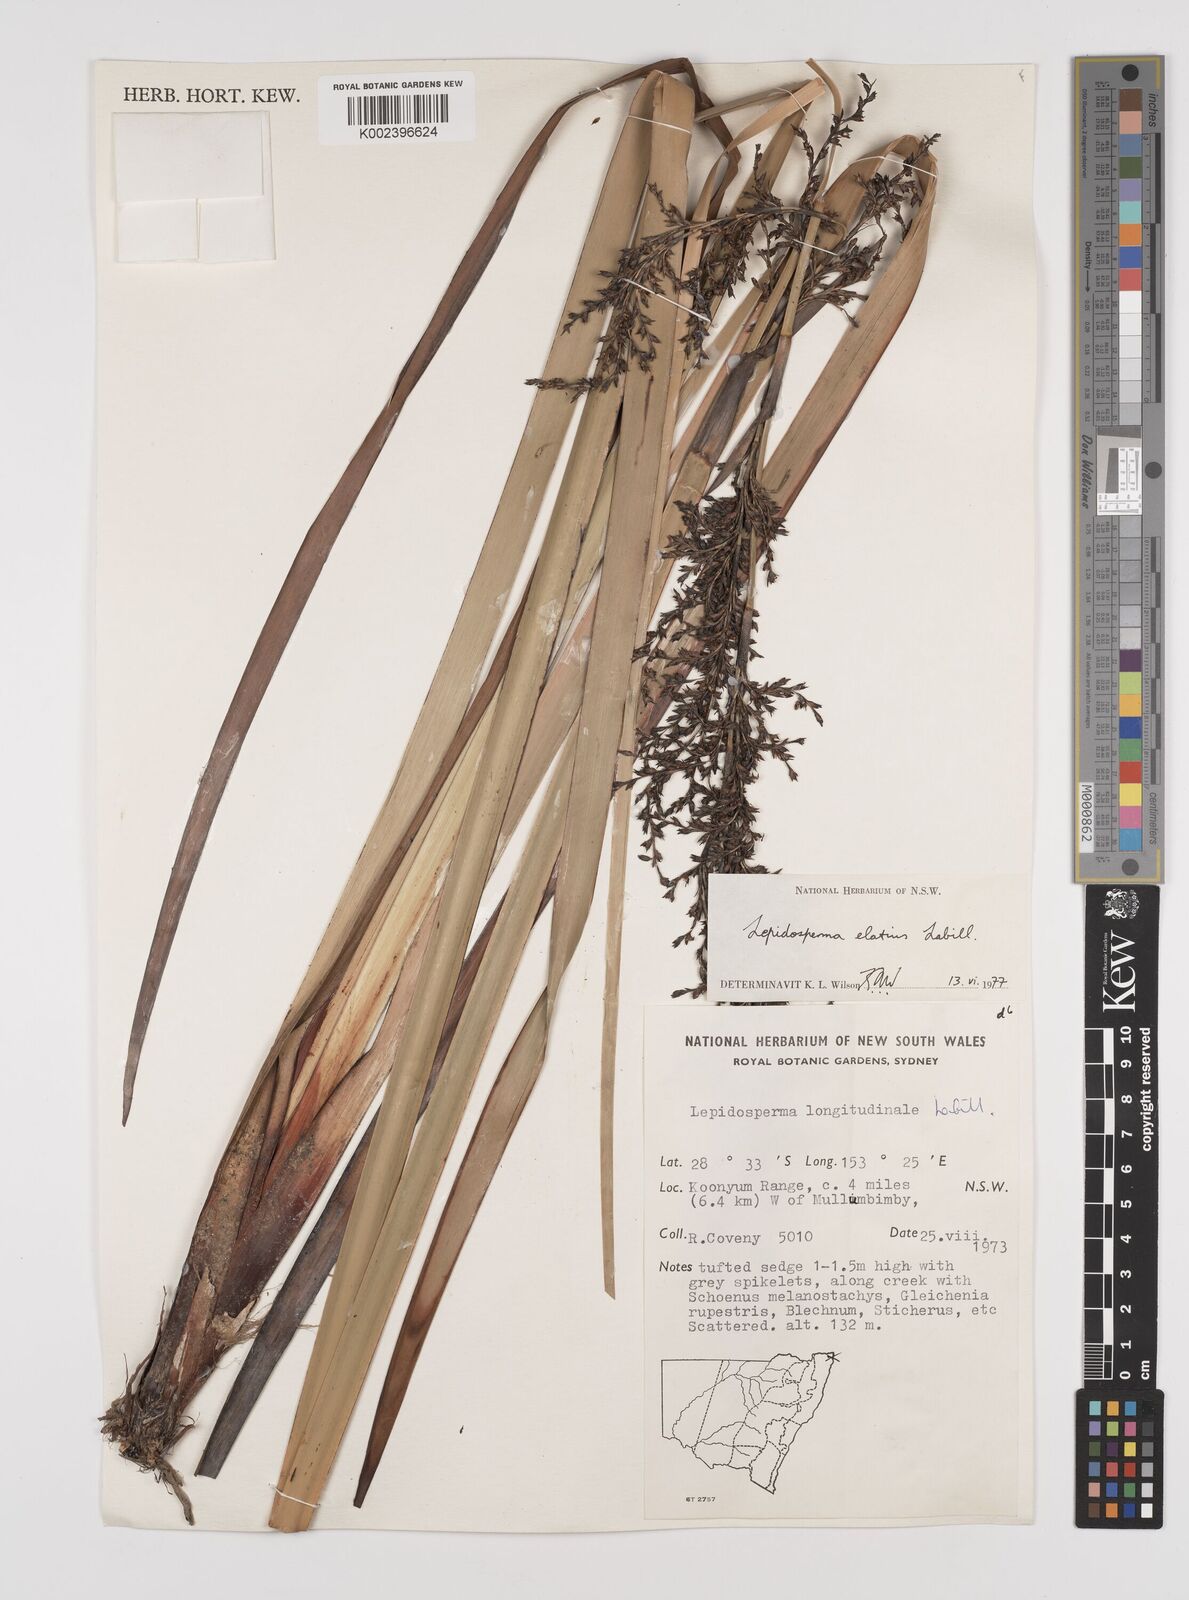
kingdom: Plantae
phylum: Tracheophyta
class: Liliopsida
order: Poales
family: Cyperaceae
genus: Lepidosperma
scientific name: Lepidosperma elatius
